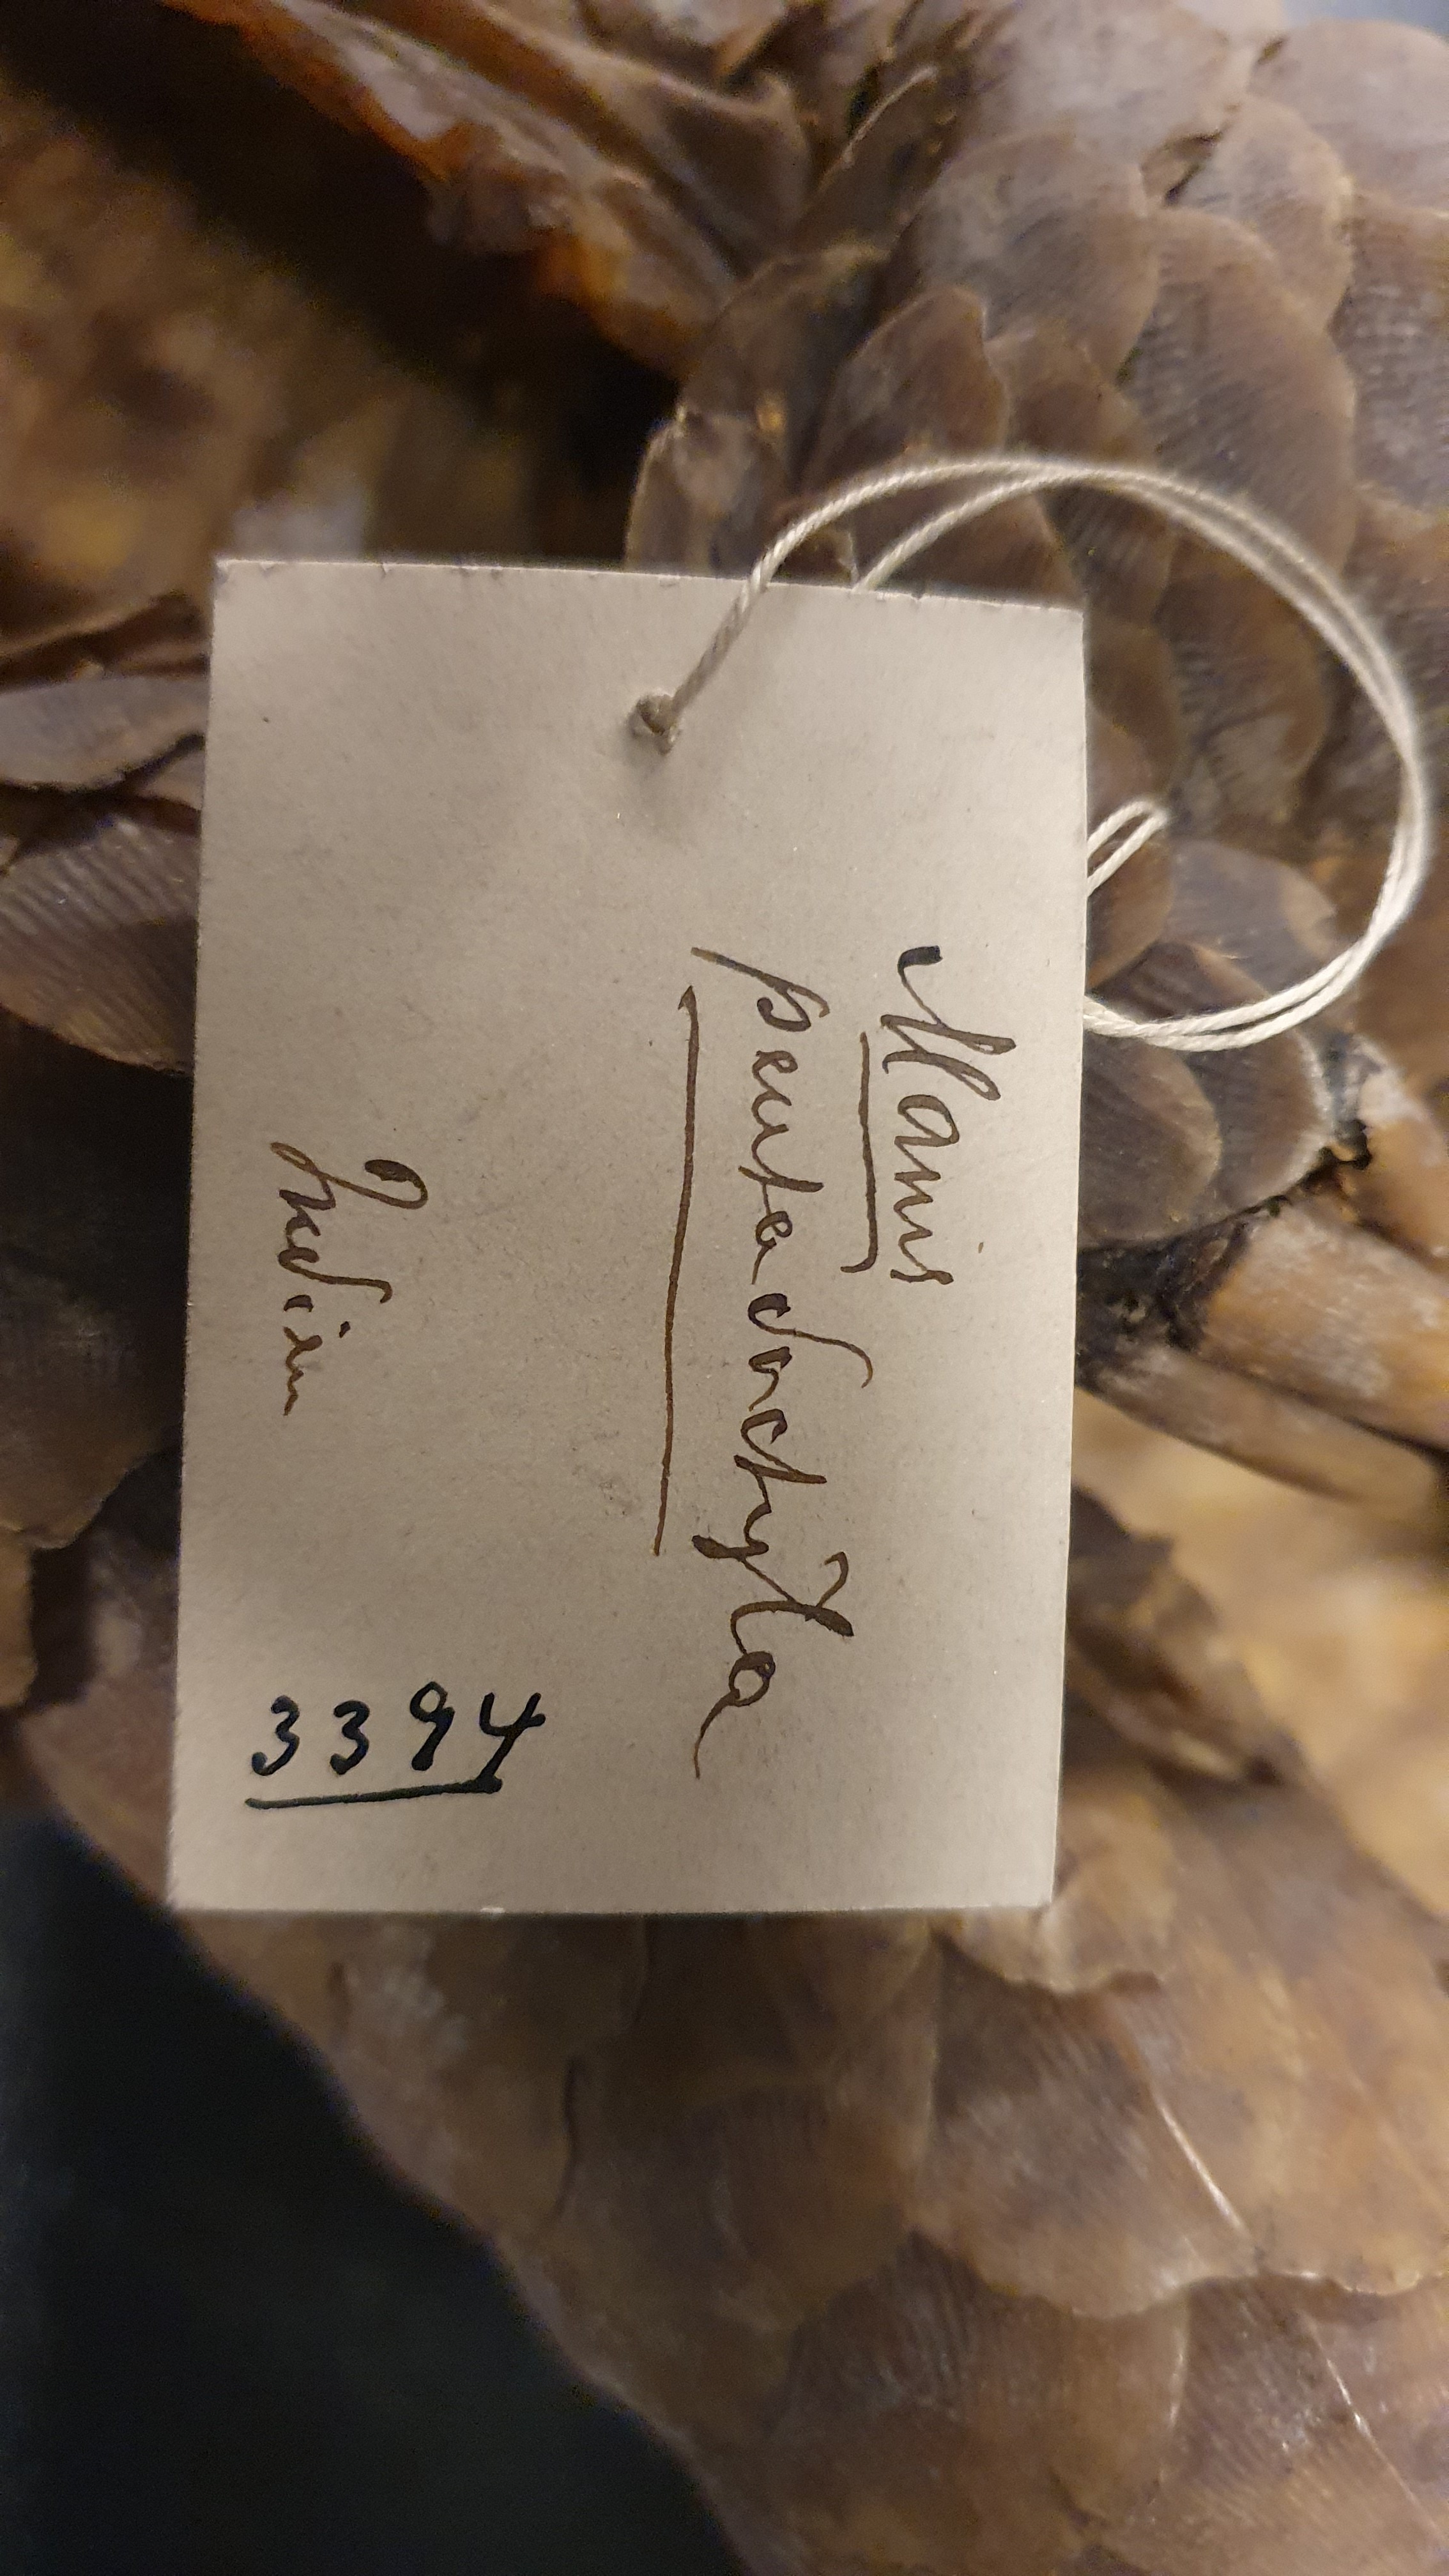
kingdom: Animalia
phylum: Chordata
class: Mammalia
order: Pholidota
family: Manidae
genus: Manis
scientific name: Manis pentadactyla
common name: Chinese pangolin
